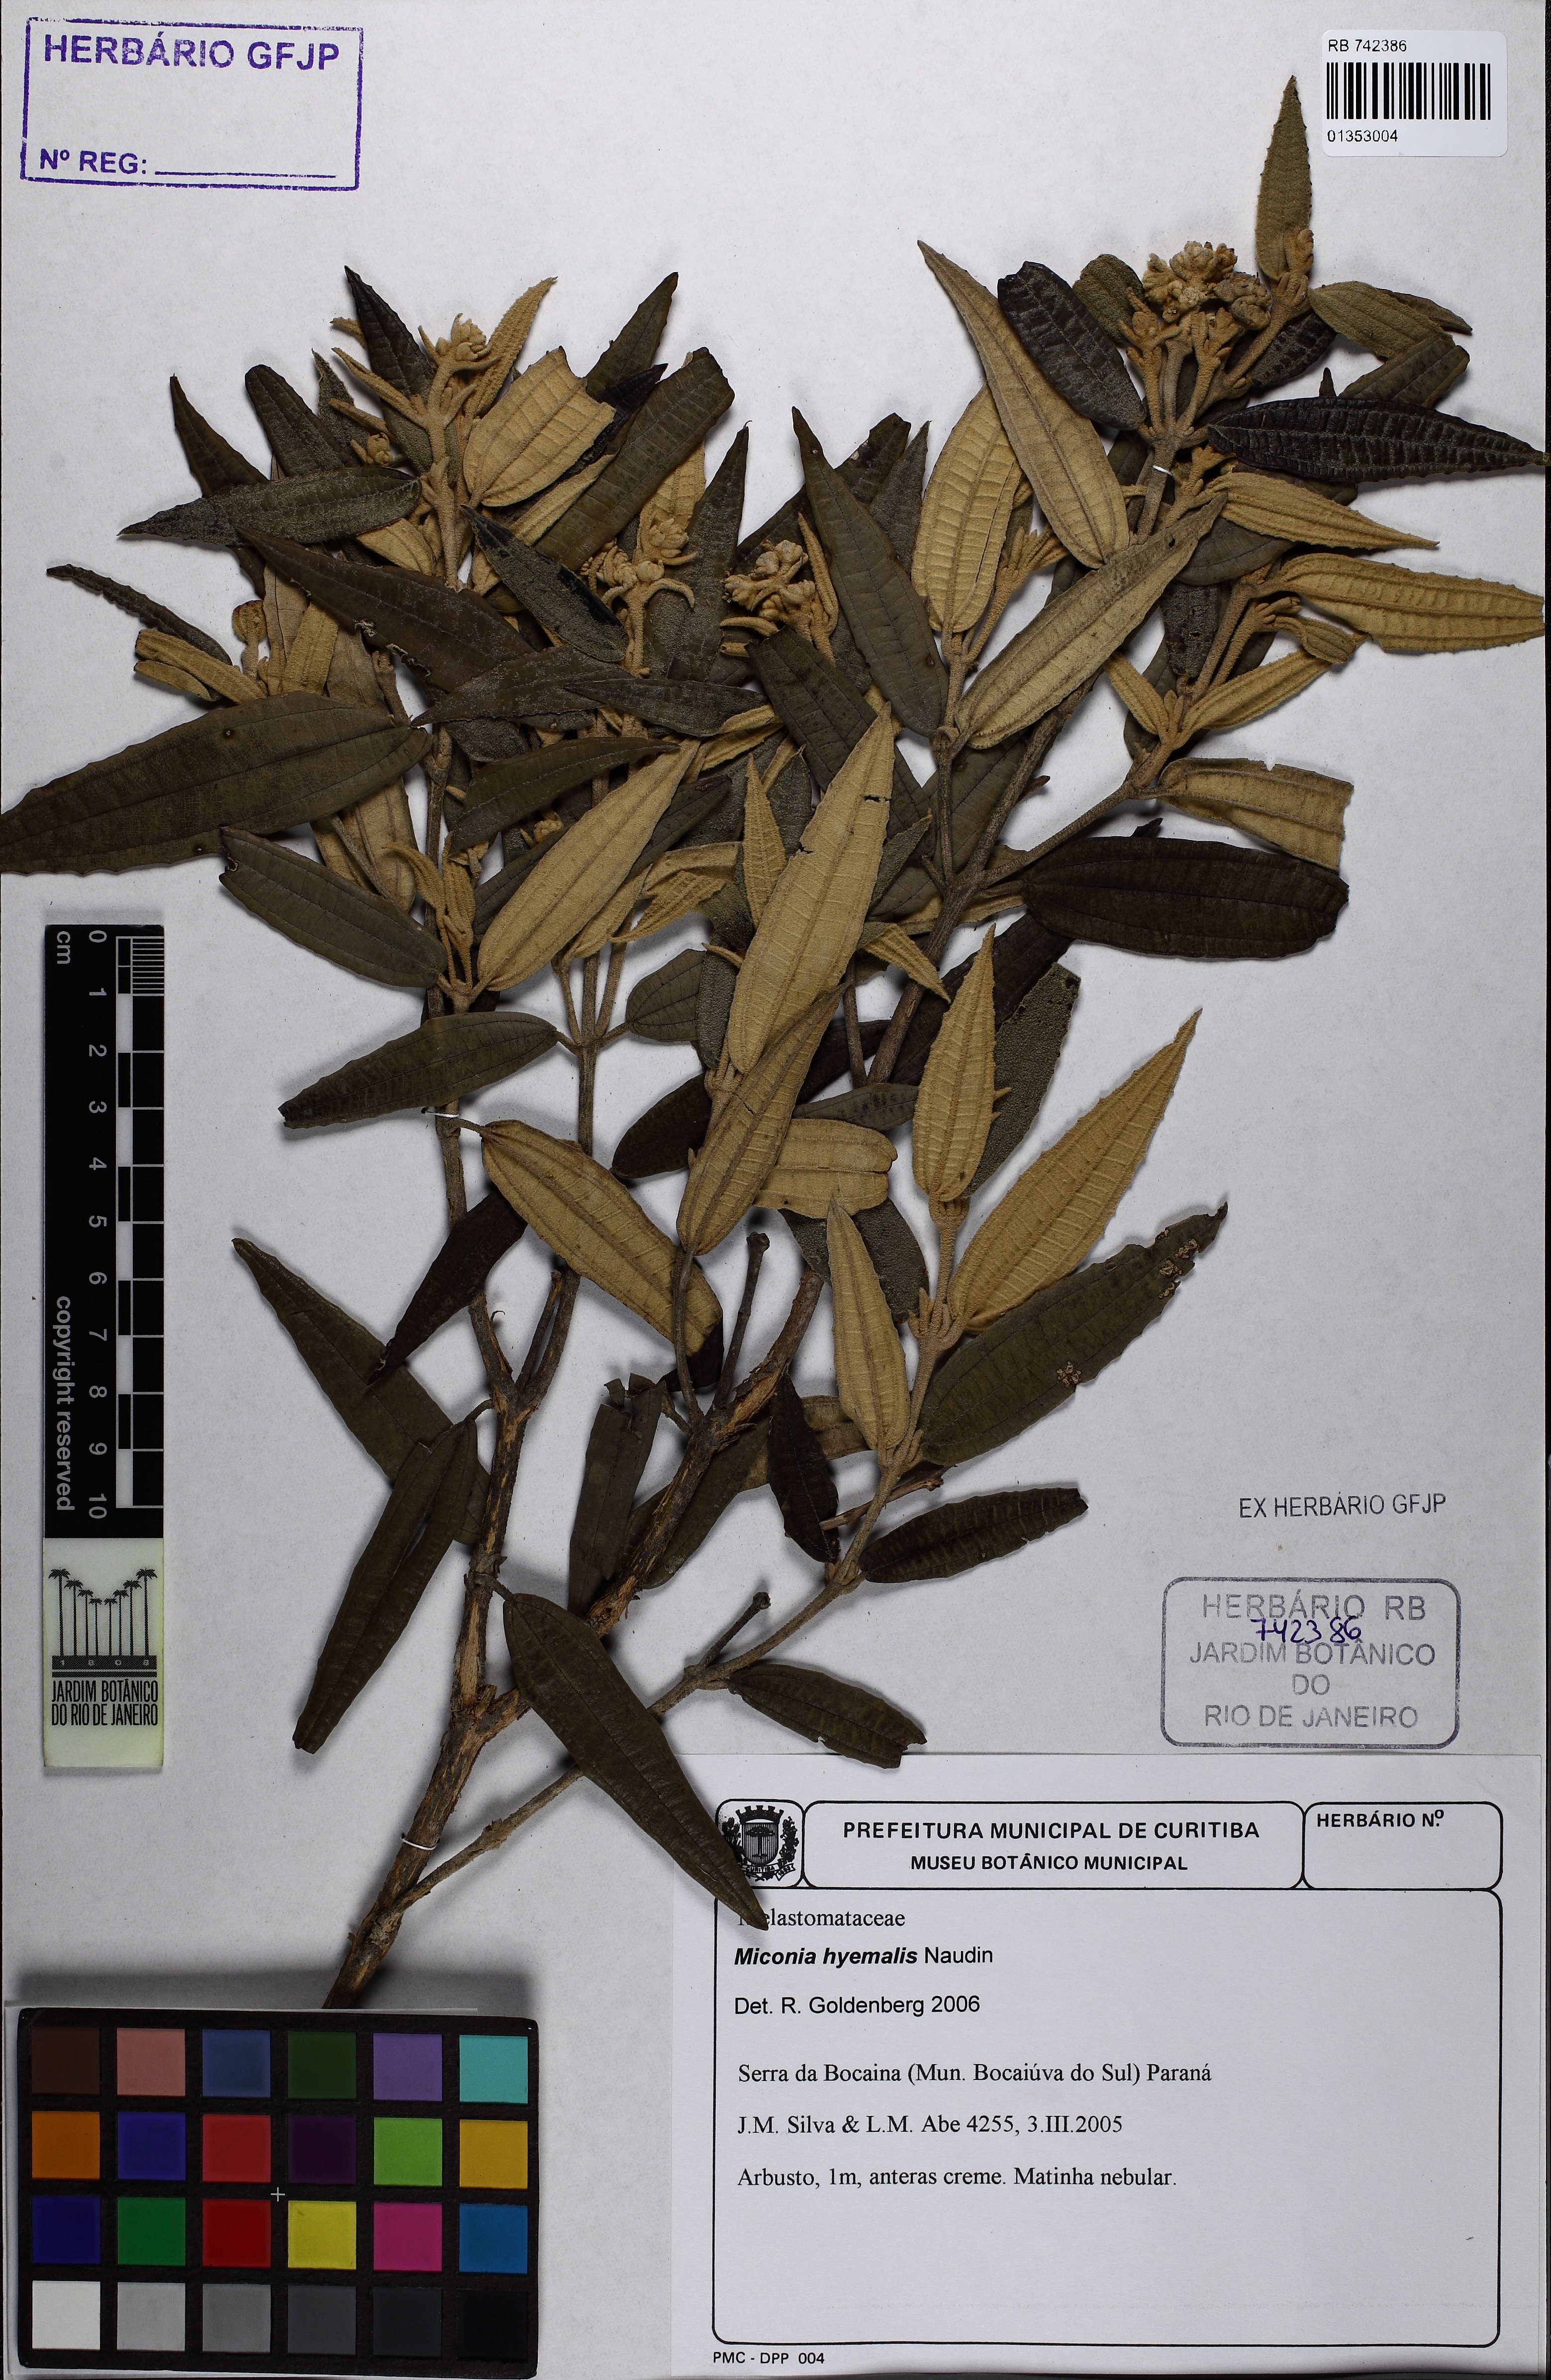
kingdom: Plantae
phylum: Tracheophyta
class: Magnoliopsida
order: Myrtales
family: Melastomataceae
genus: Miconia
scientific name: Miconia hyemalis
